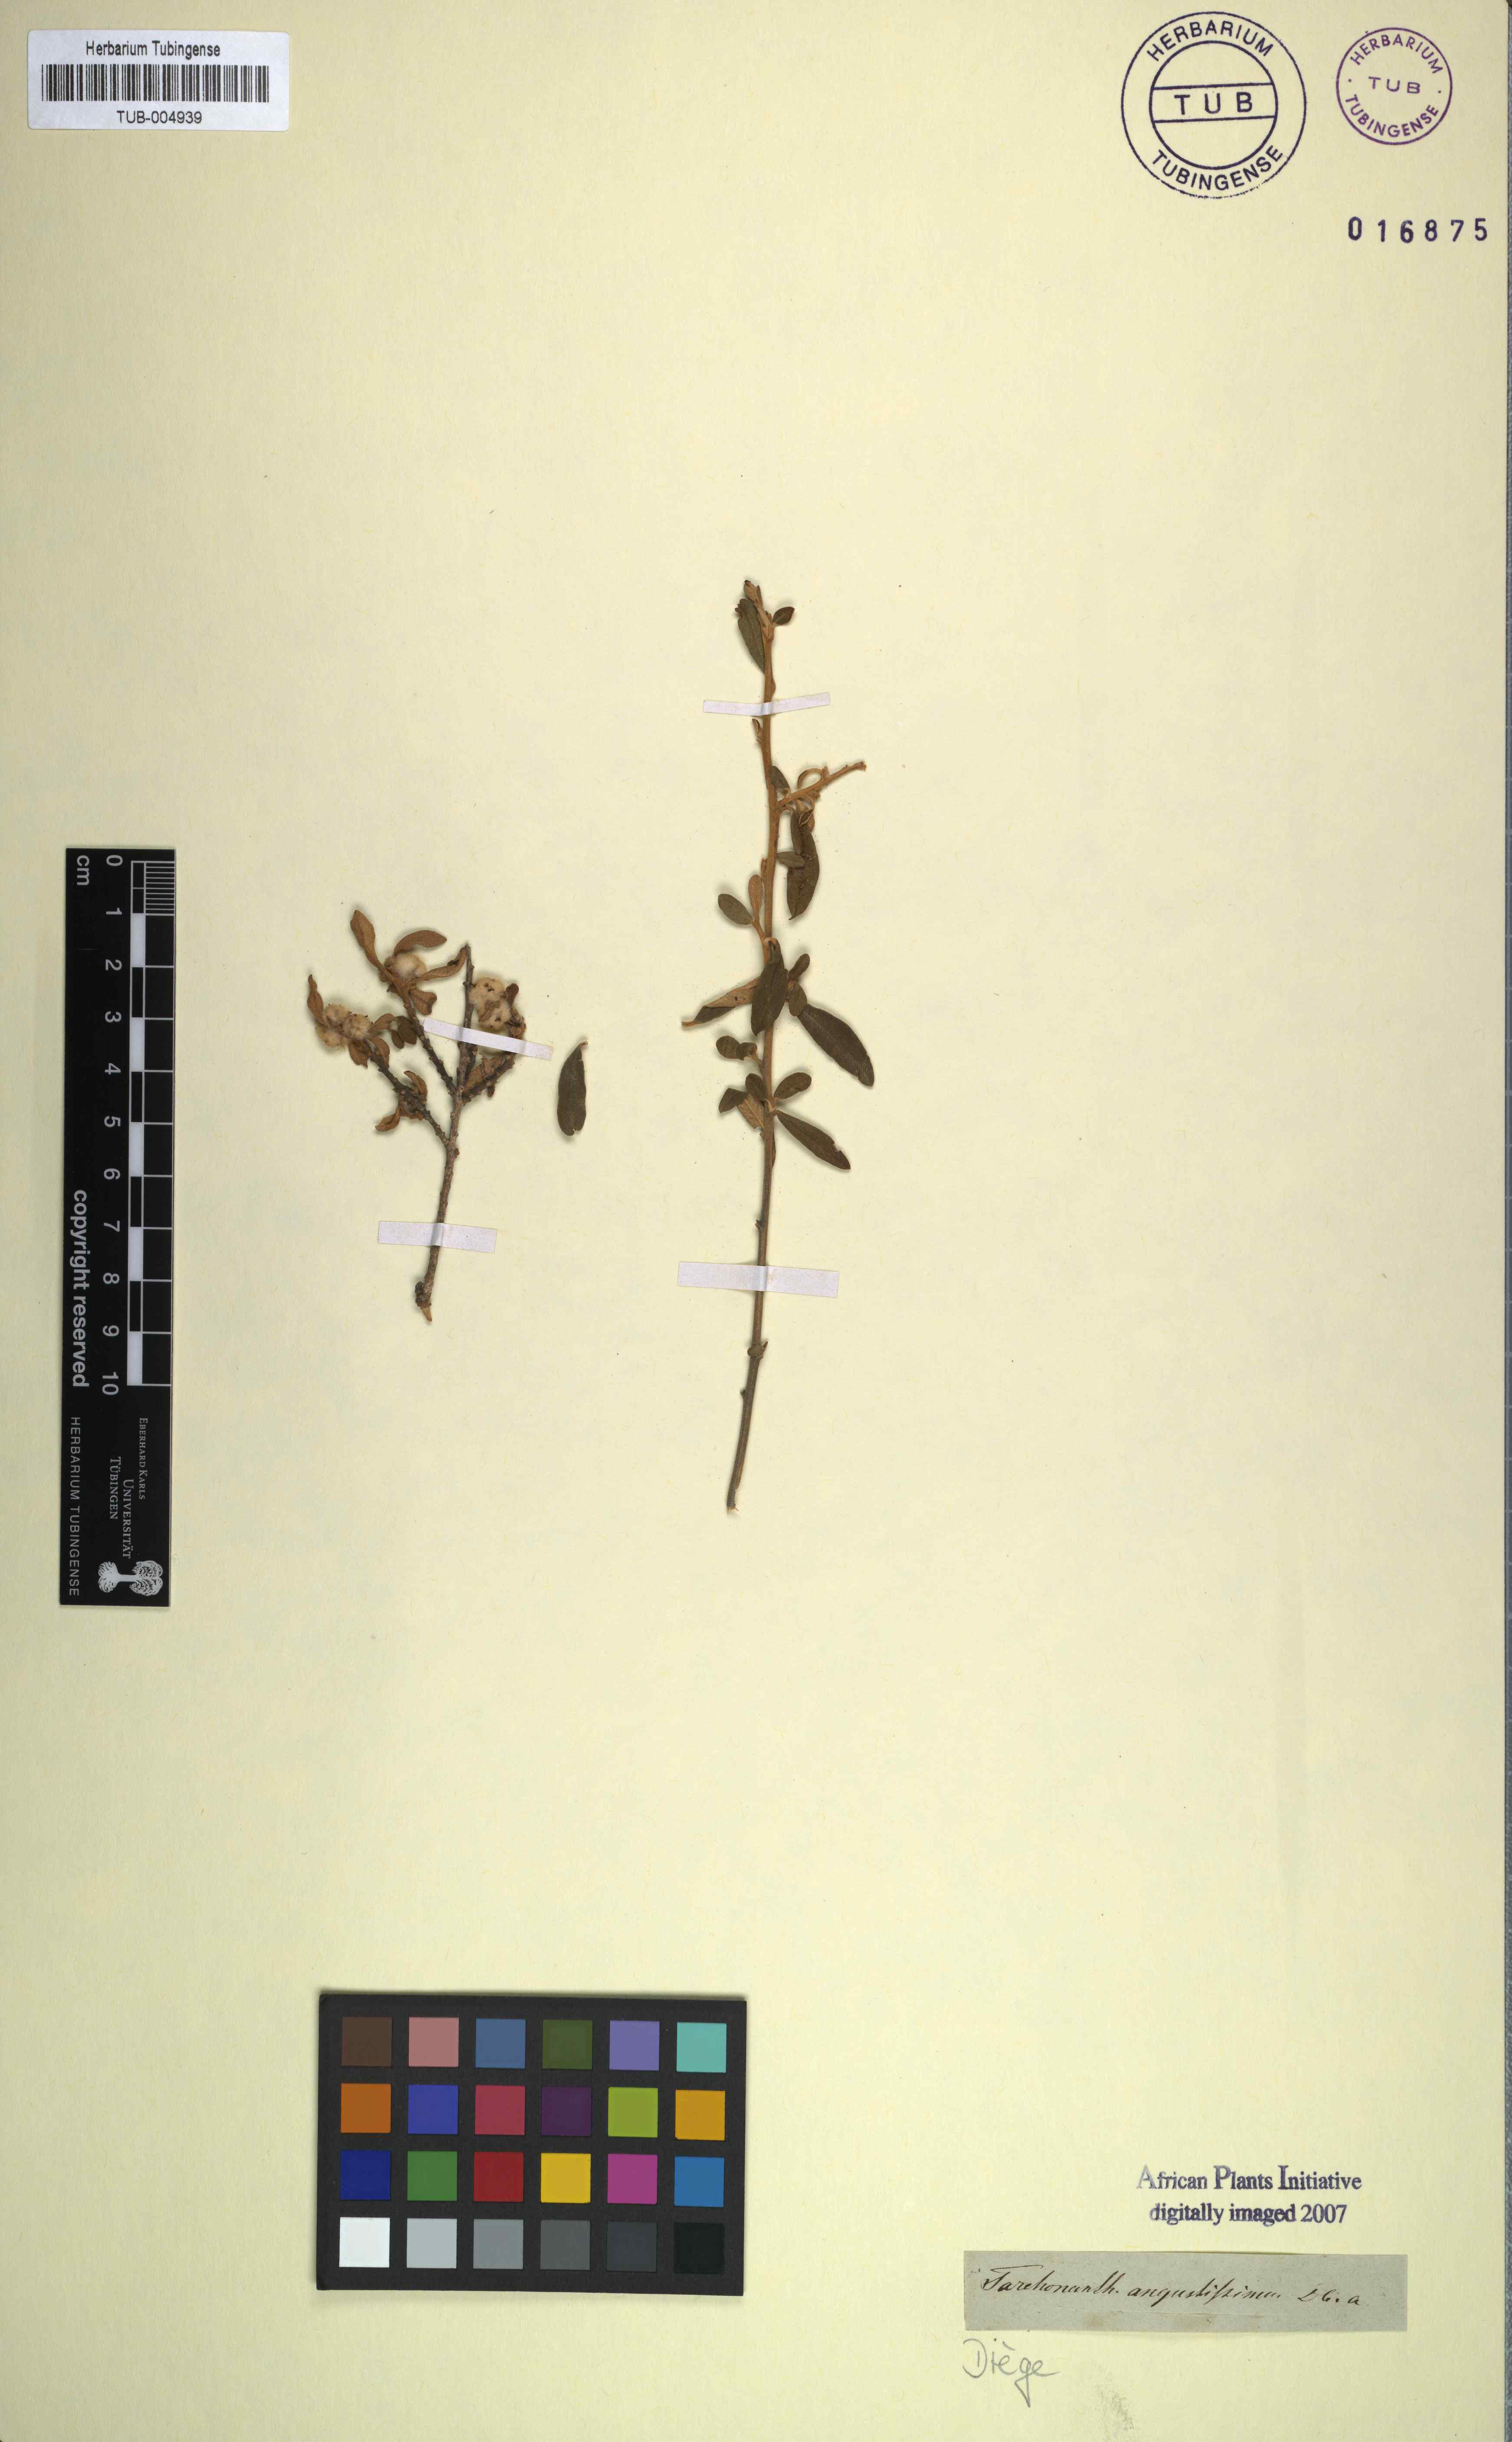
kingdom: Plantae
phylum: Tracheophyta
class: Magnoliopsida
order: Asterales
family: Asteraceae
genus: Tarchonanthus
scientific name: Tarchonanthus minor
